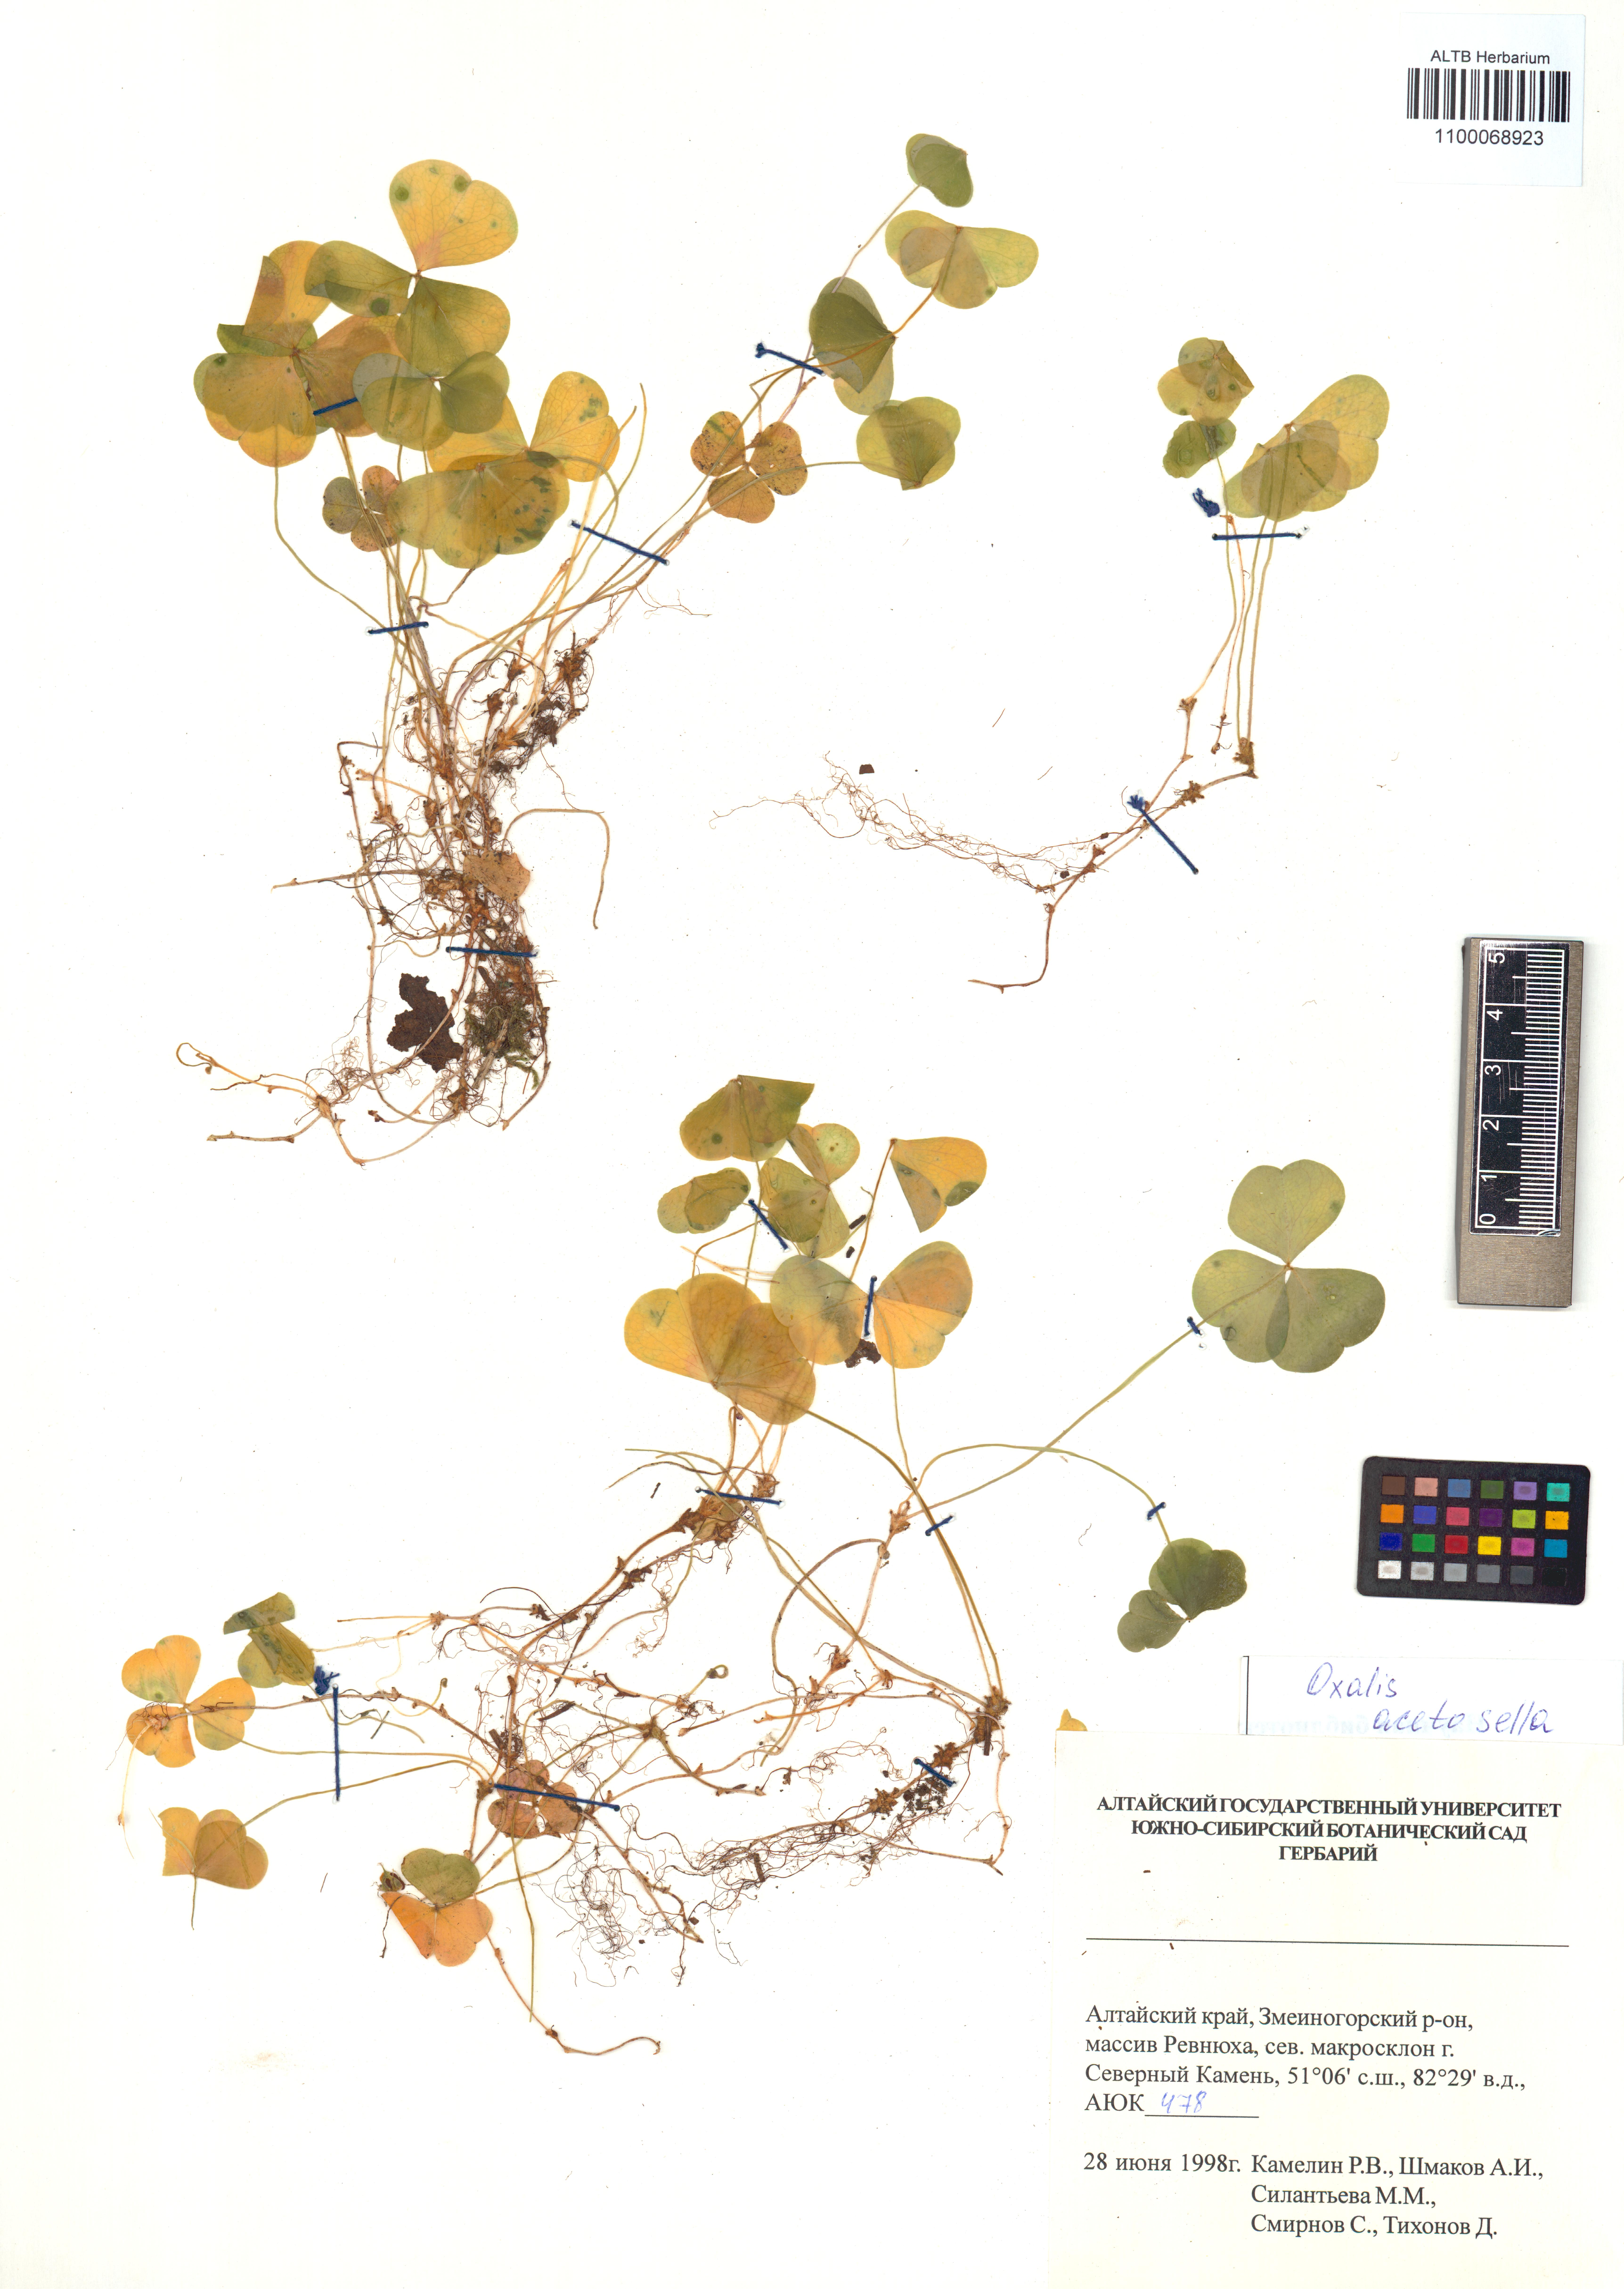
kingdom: Plantae
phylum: Tracheophyta
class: Magnoliopsida
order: Oxalidales
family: Oxalidaceae
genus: Oxalis
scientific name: Oxalis acetosella
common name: Wood-sorrel
